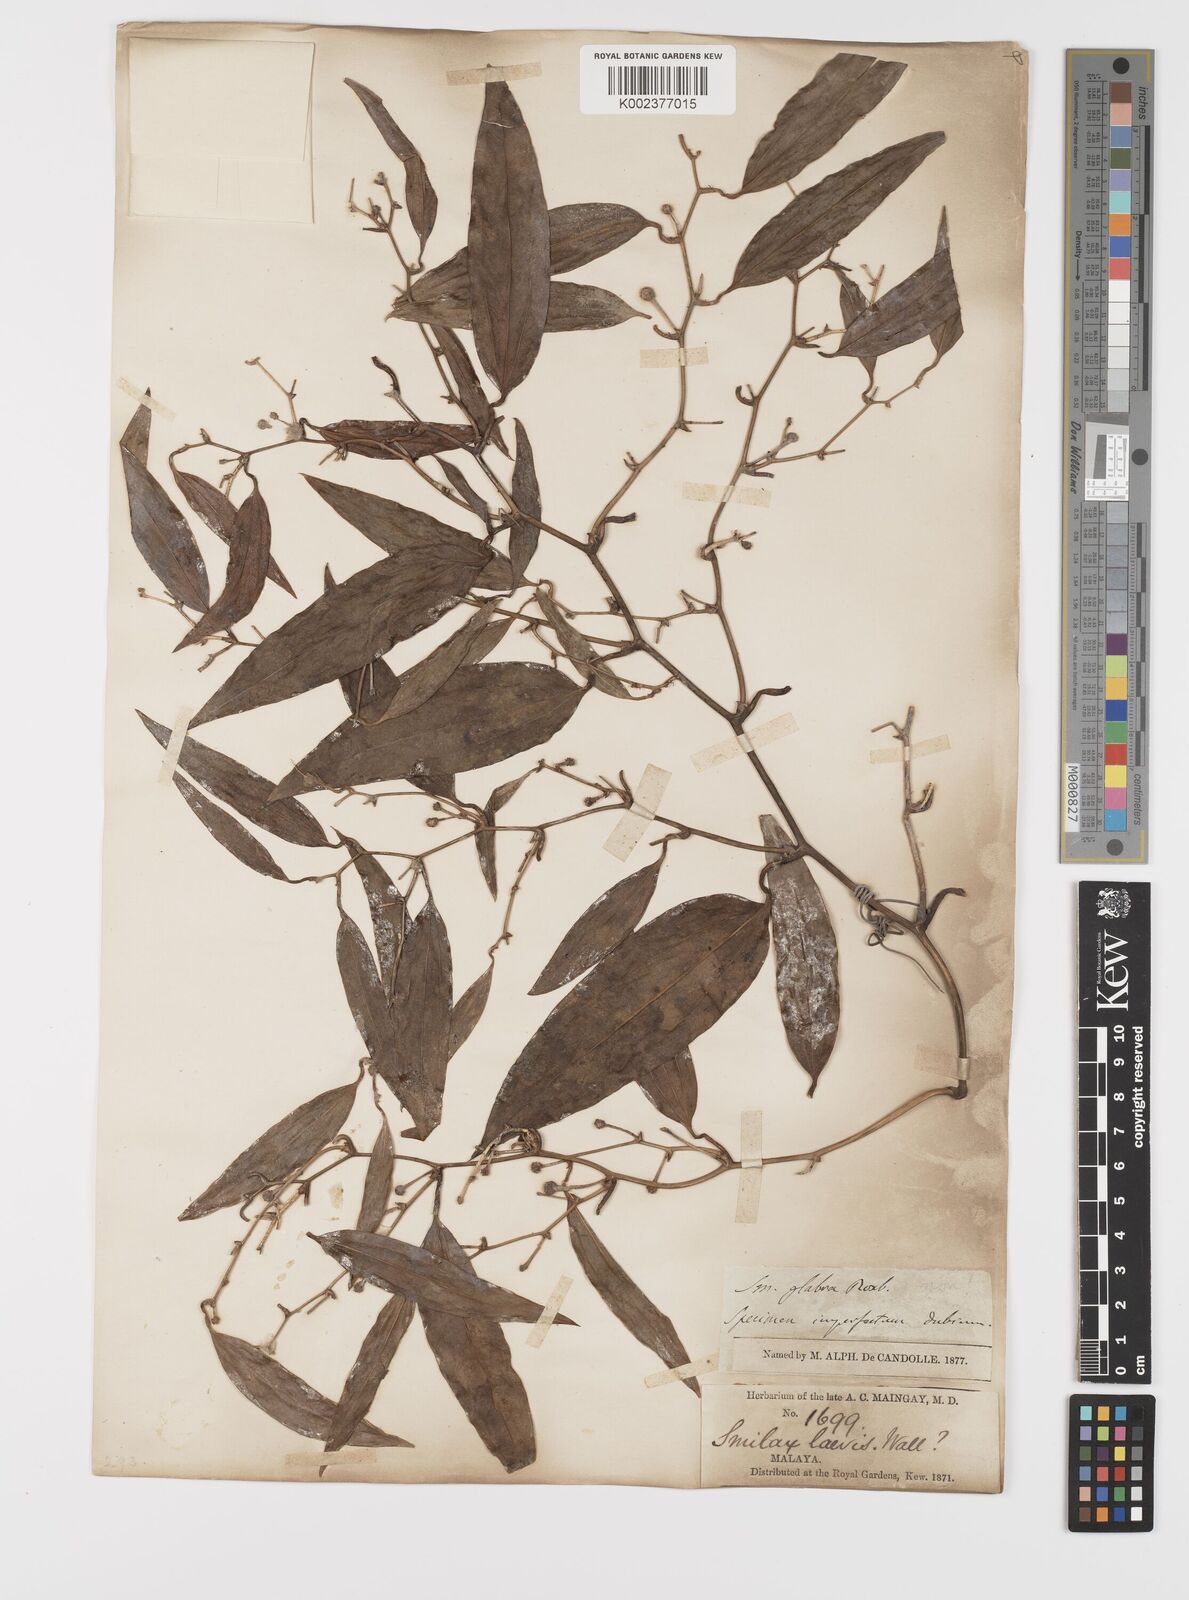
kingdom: Plantae
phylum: Tracheophyta
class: Liliopsida
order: Liliales
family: Smilacaceae
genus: Smilax
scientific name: Smilax laevis
